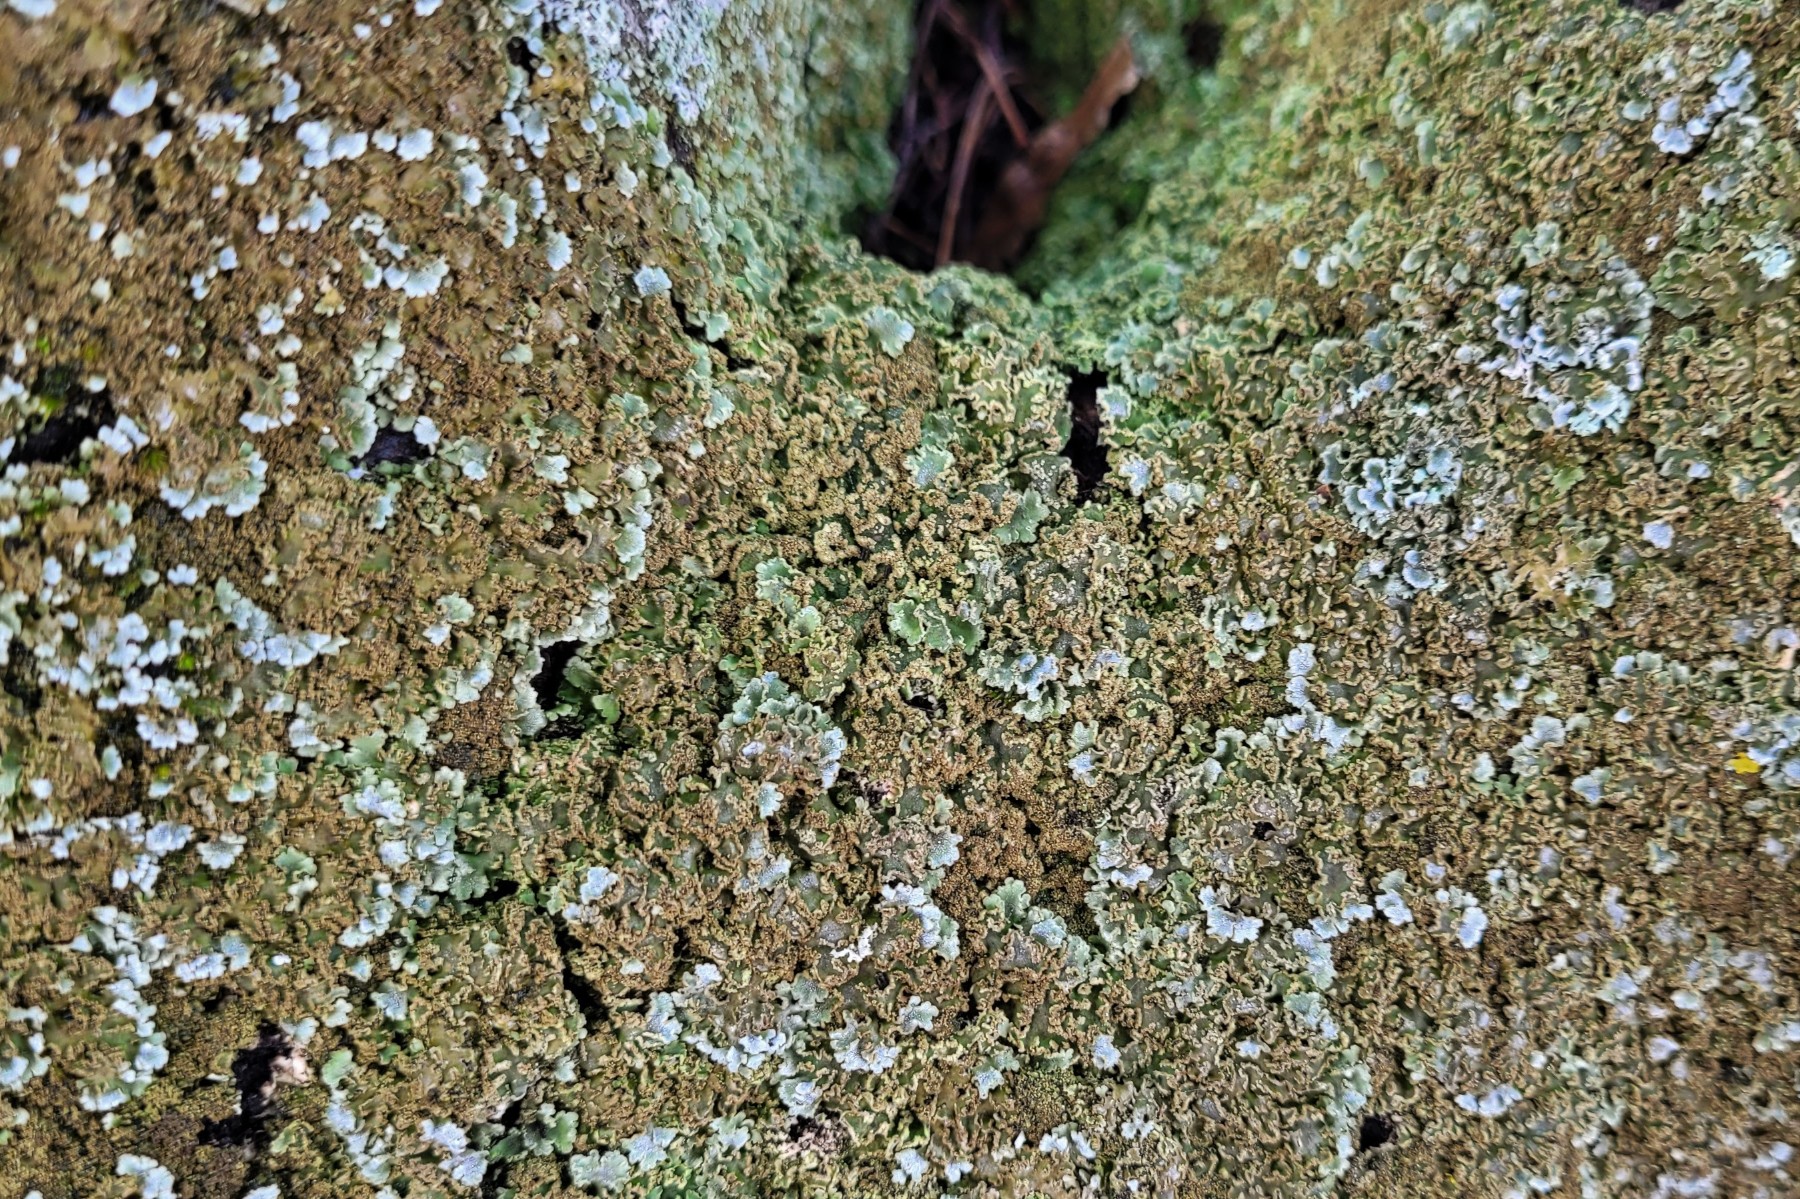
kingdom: Fungi
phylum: Ascomycota
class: Lecanoromycetes
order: Caliciales
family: Physciaceae
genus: Physconia
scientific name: Physconia enteroxantha
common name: grynet dugrosetlav
